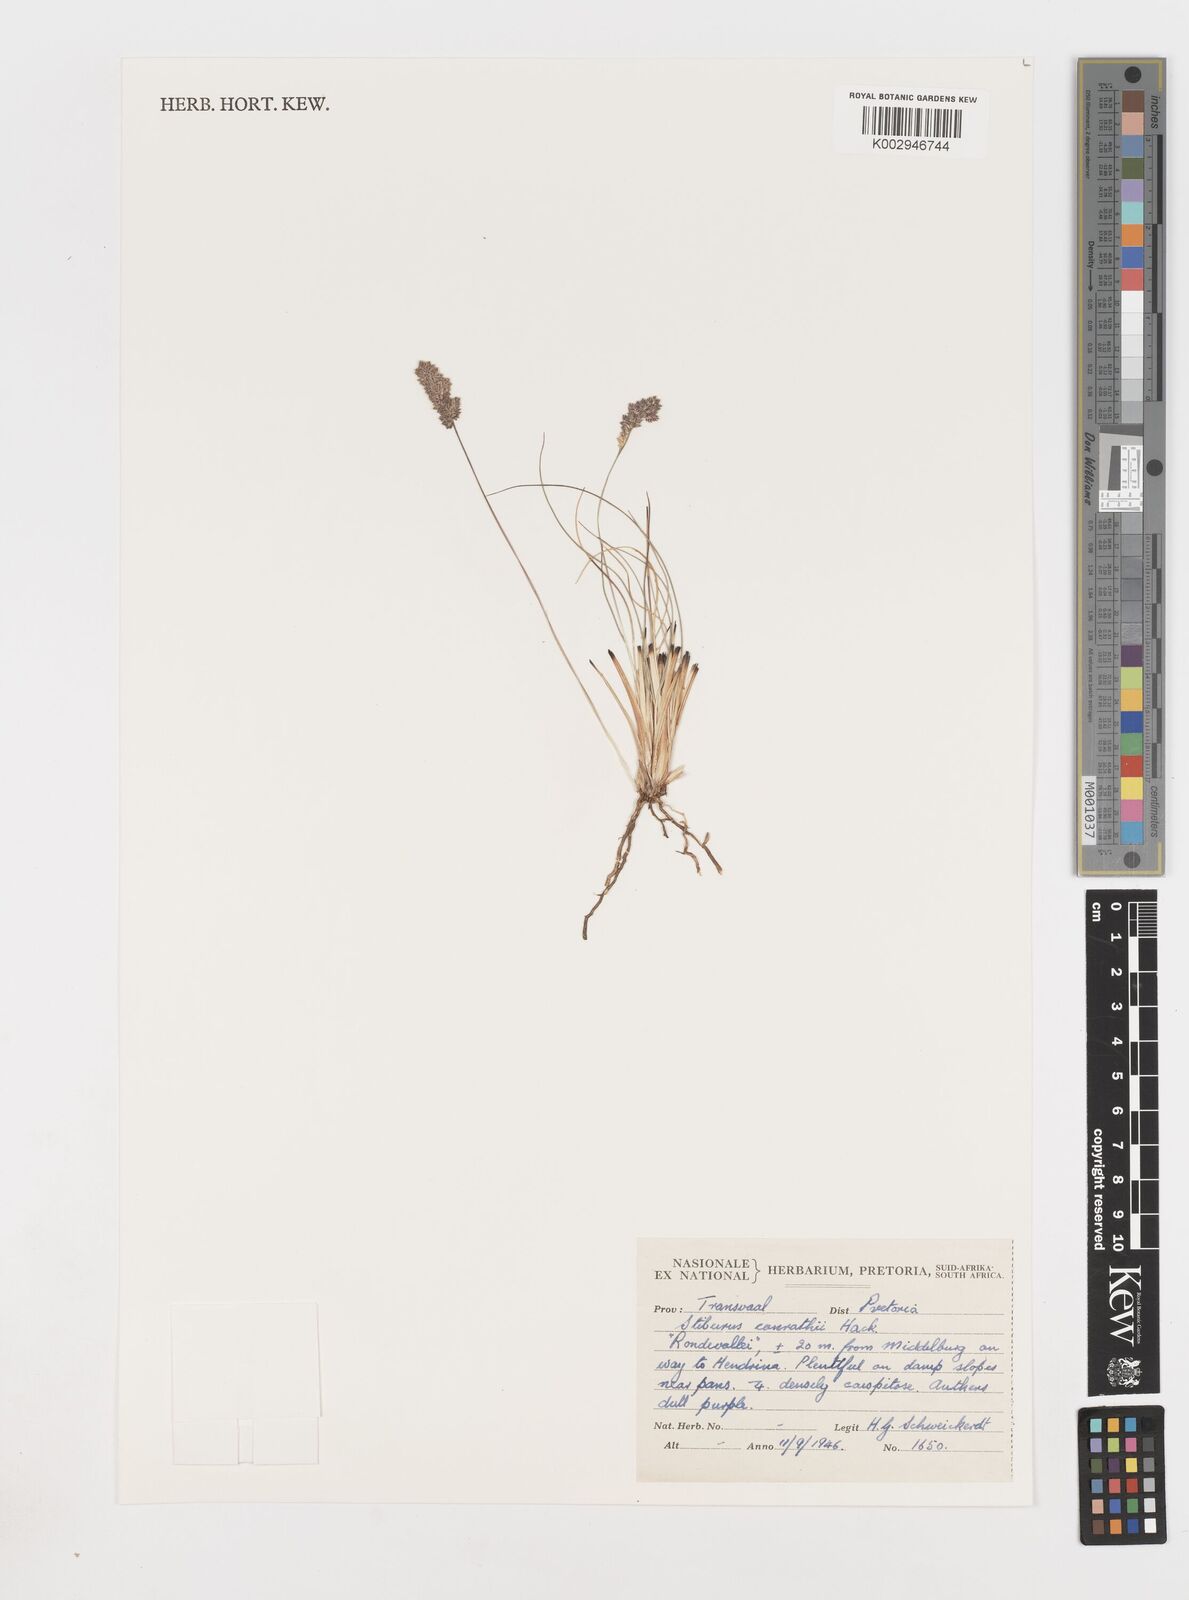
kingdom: Plantae
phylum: Tracheophyta
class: Liliopsida
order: Poales
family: Poaceae
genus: Stiburus
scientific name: Stiburus conrathii
